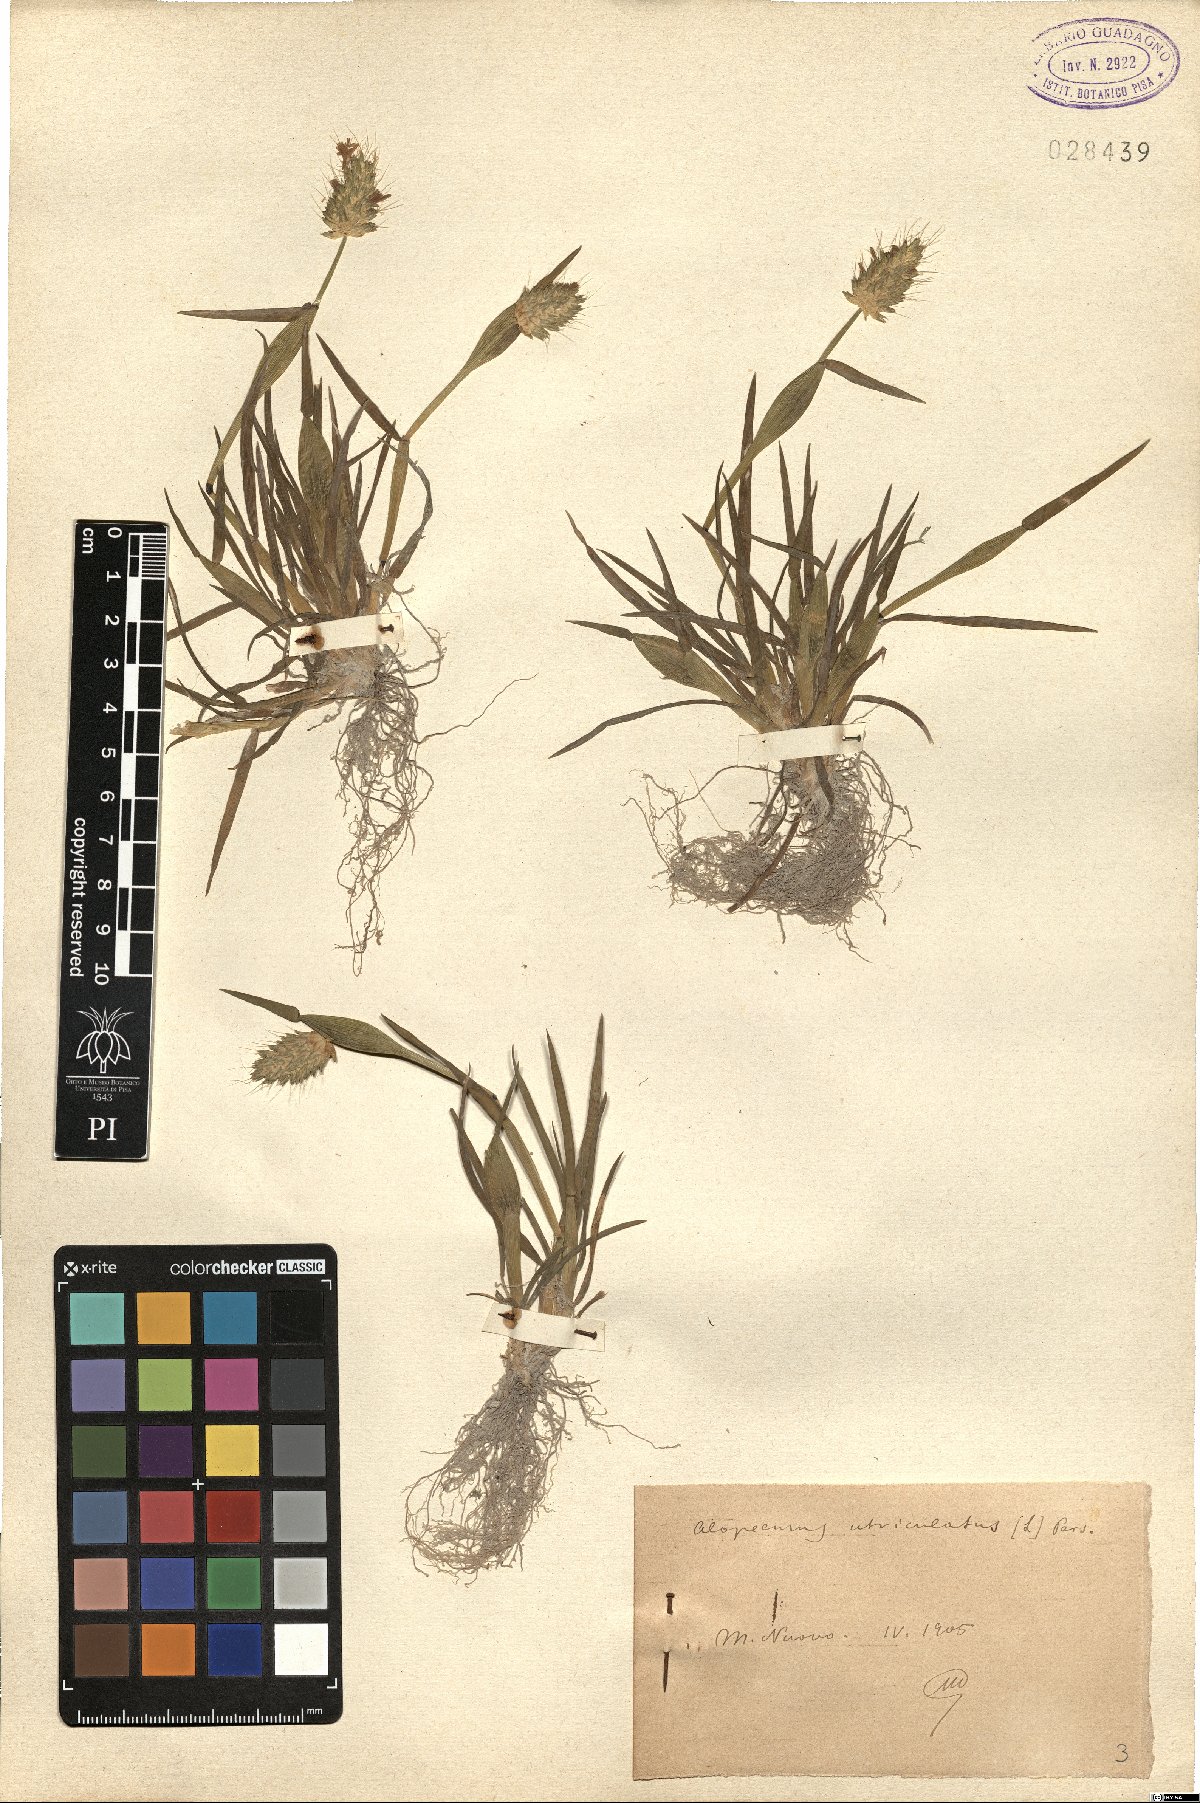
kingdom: Plantae
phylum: Tracheophyta
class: Liliopsida
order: Poales
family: Poaceae
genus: Alopecurus
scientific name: Alopecurus rendlei
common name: Rendle's meadow foxtail
